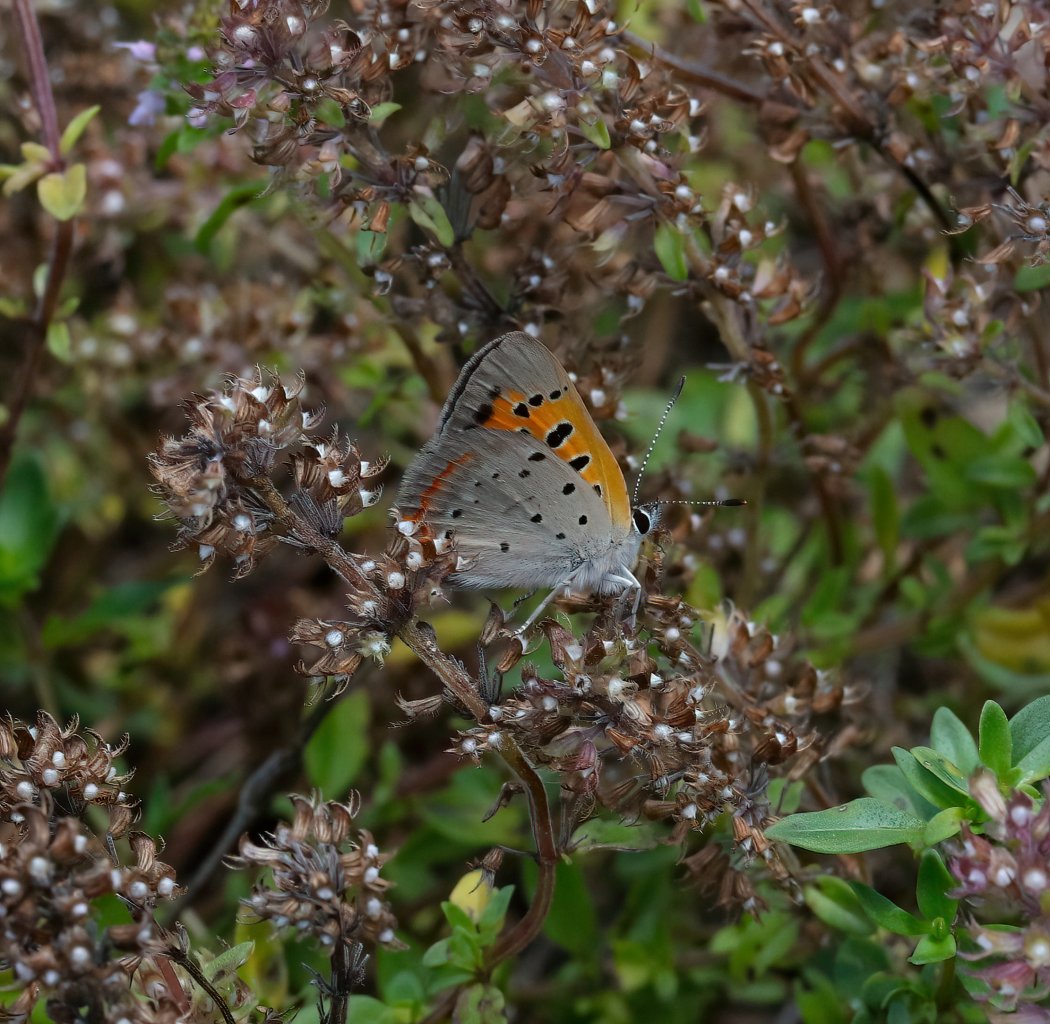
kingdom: Animalia
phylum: Arthropoda
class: Insecta
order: Lepidoptera
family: Lycaenidae
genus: Lycaena
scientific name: Lycaena phlaeas
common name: American Copper
